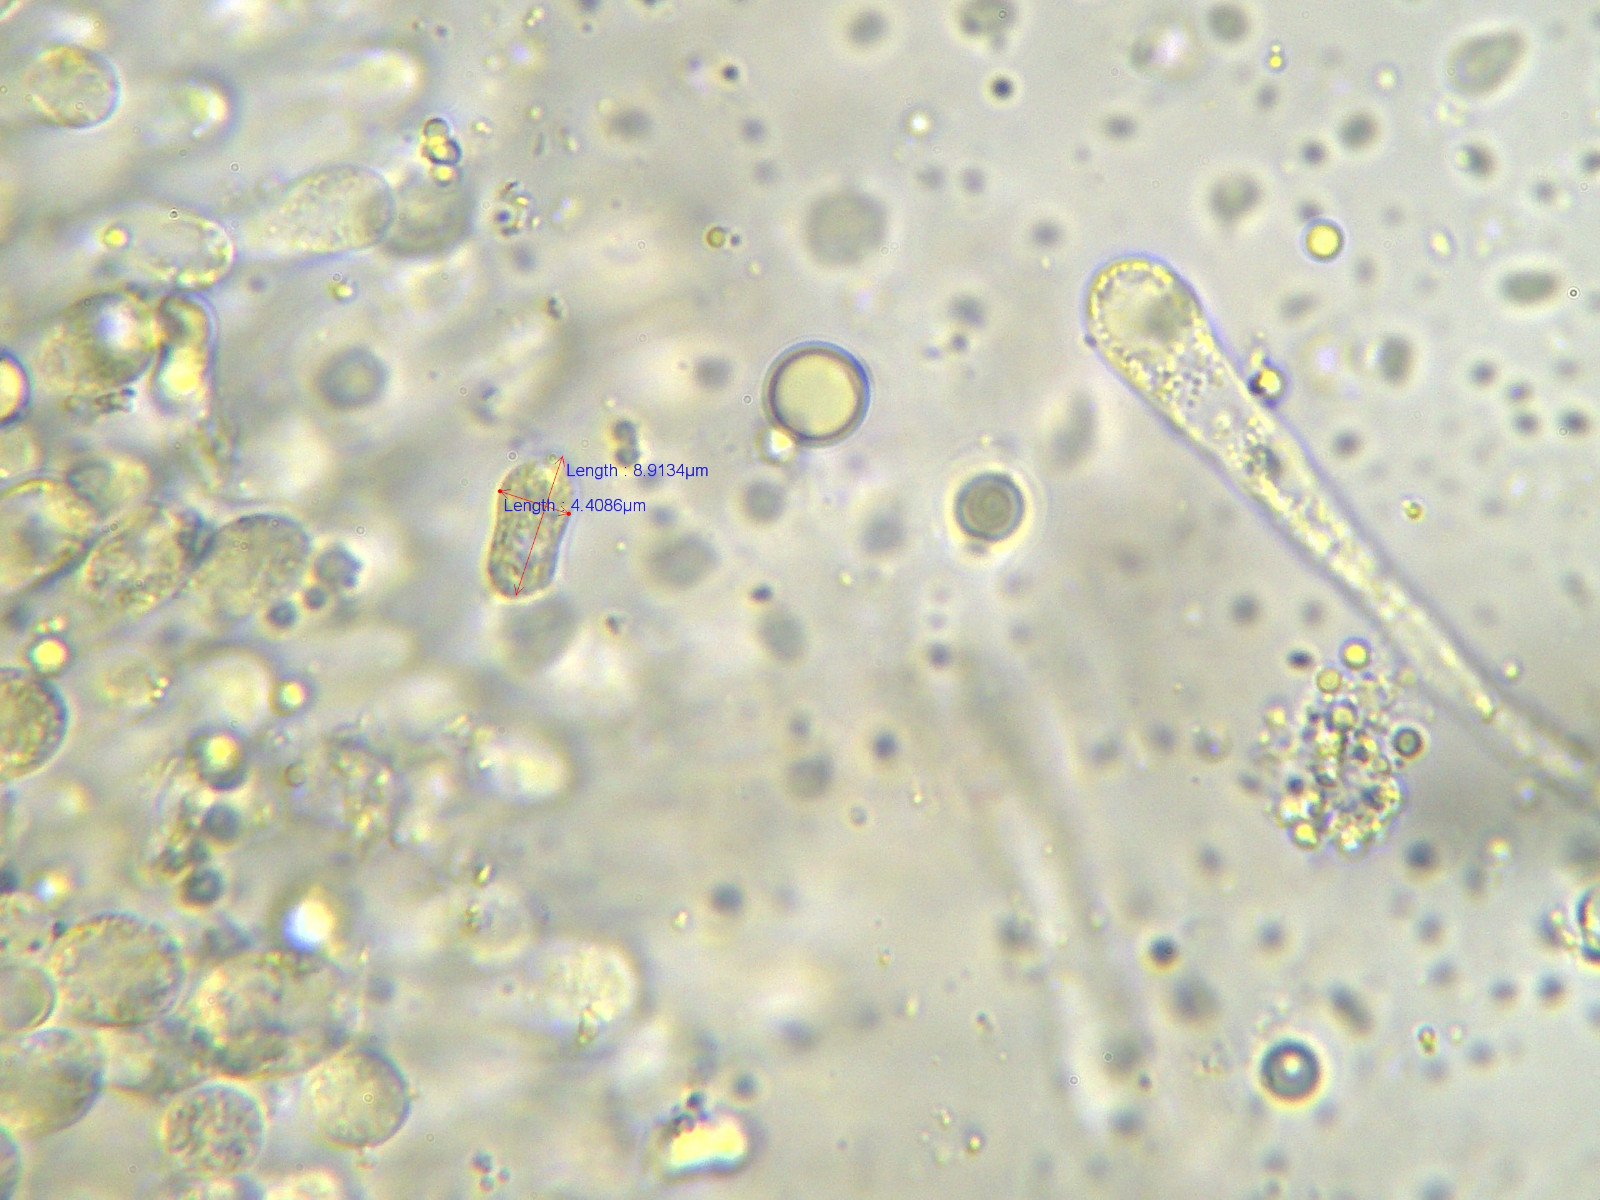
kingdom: Fungi
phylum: Basidiomycota
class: Agaricomycetes
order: Agaricales
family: Hygrophoraceae
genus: Hygrocybe
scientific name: Hygrocybe aurantiosplendens
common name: orangegylden vokshat
